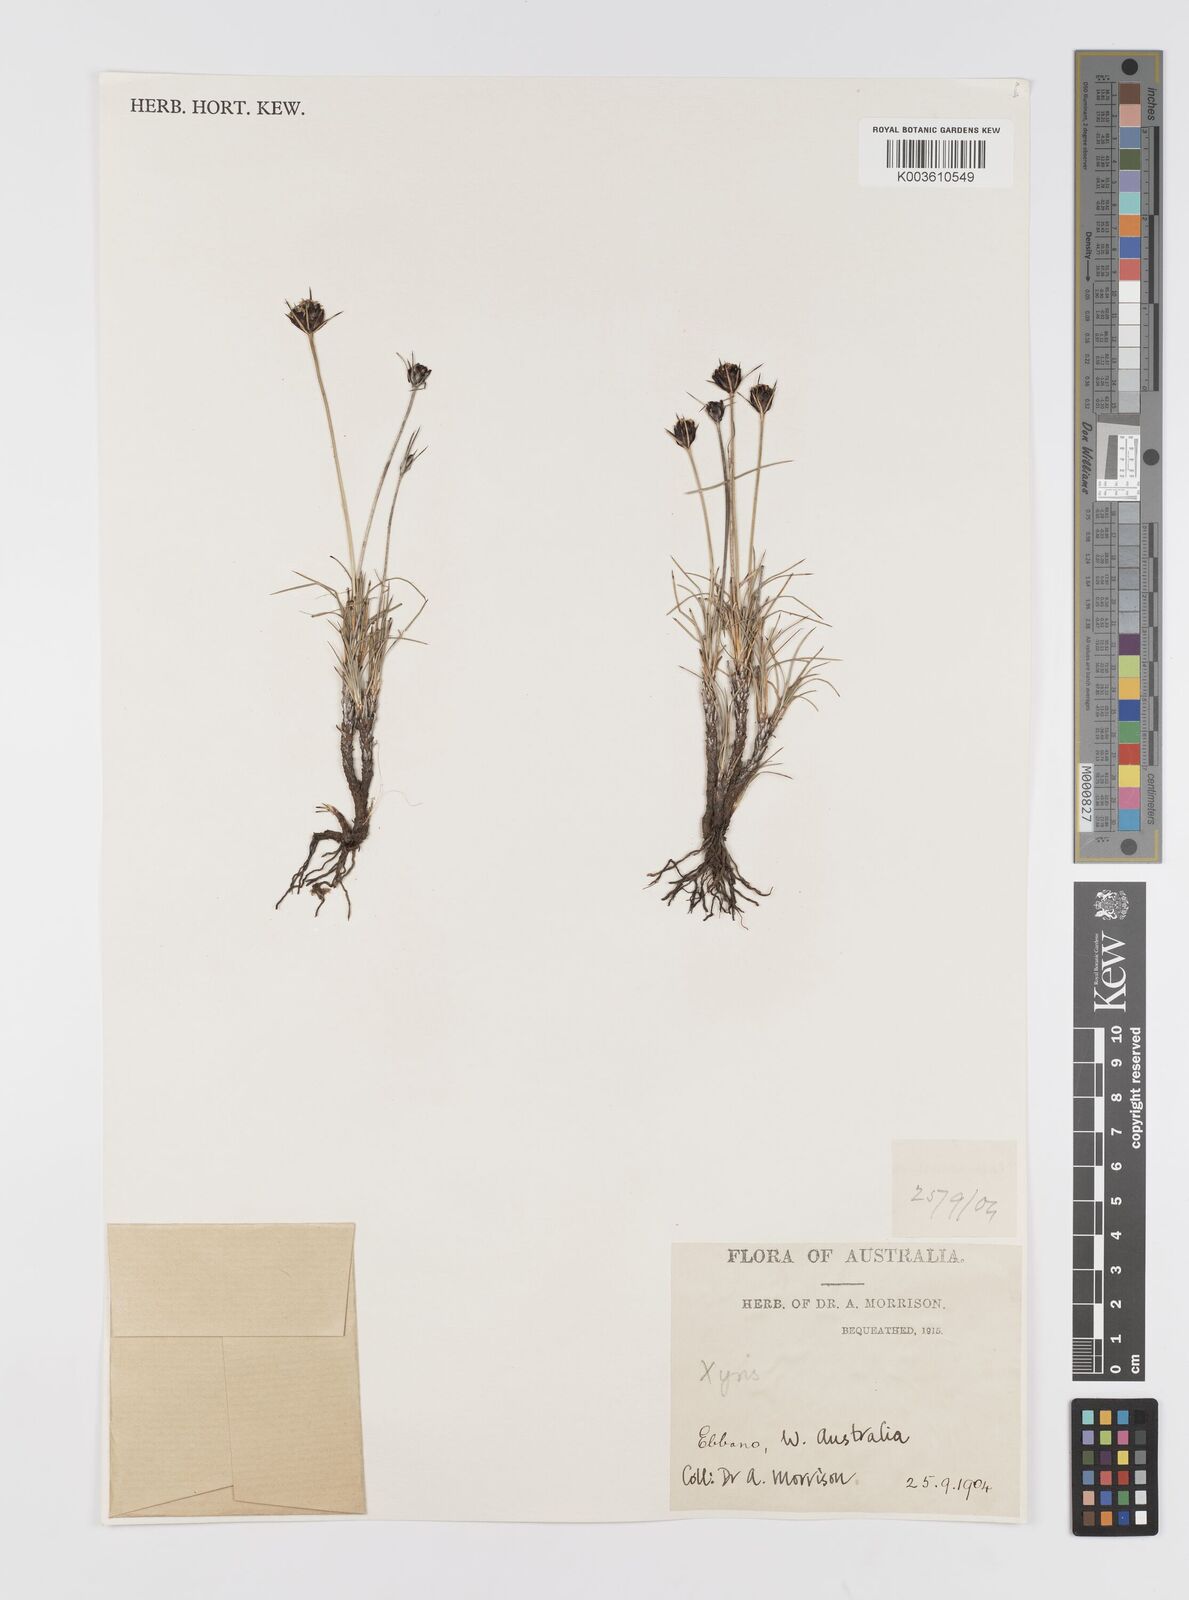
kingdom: Plantae
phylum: Tracheophyta
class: Liliopsida
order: Asparagales
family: Boryaceae
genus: Borya
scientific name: Borya sphaerocephala
